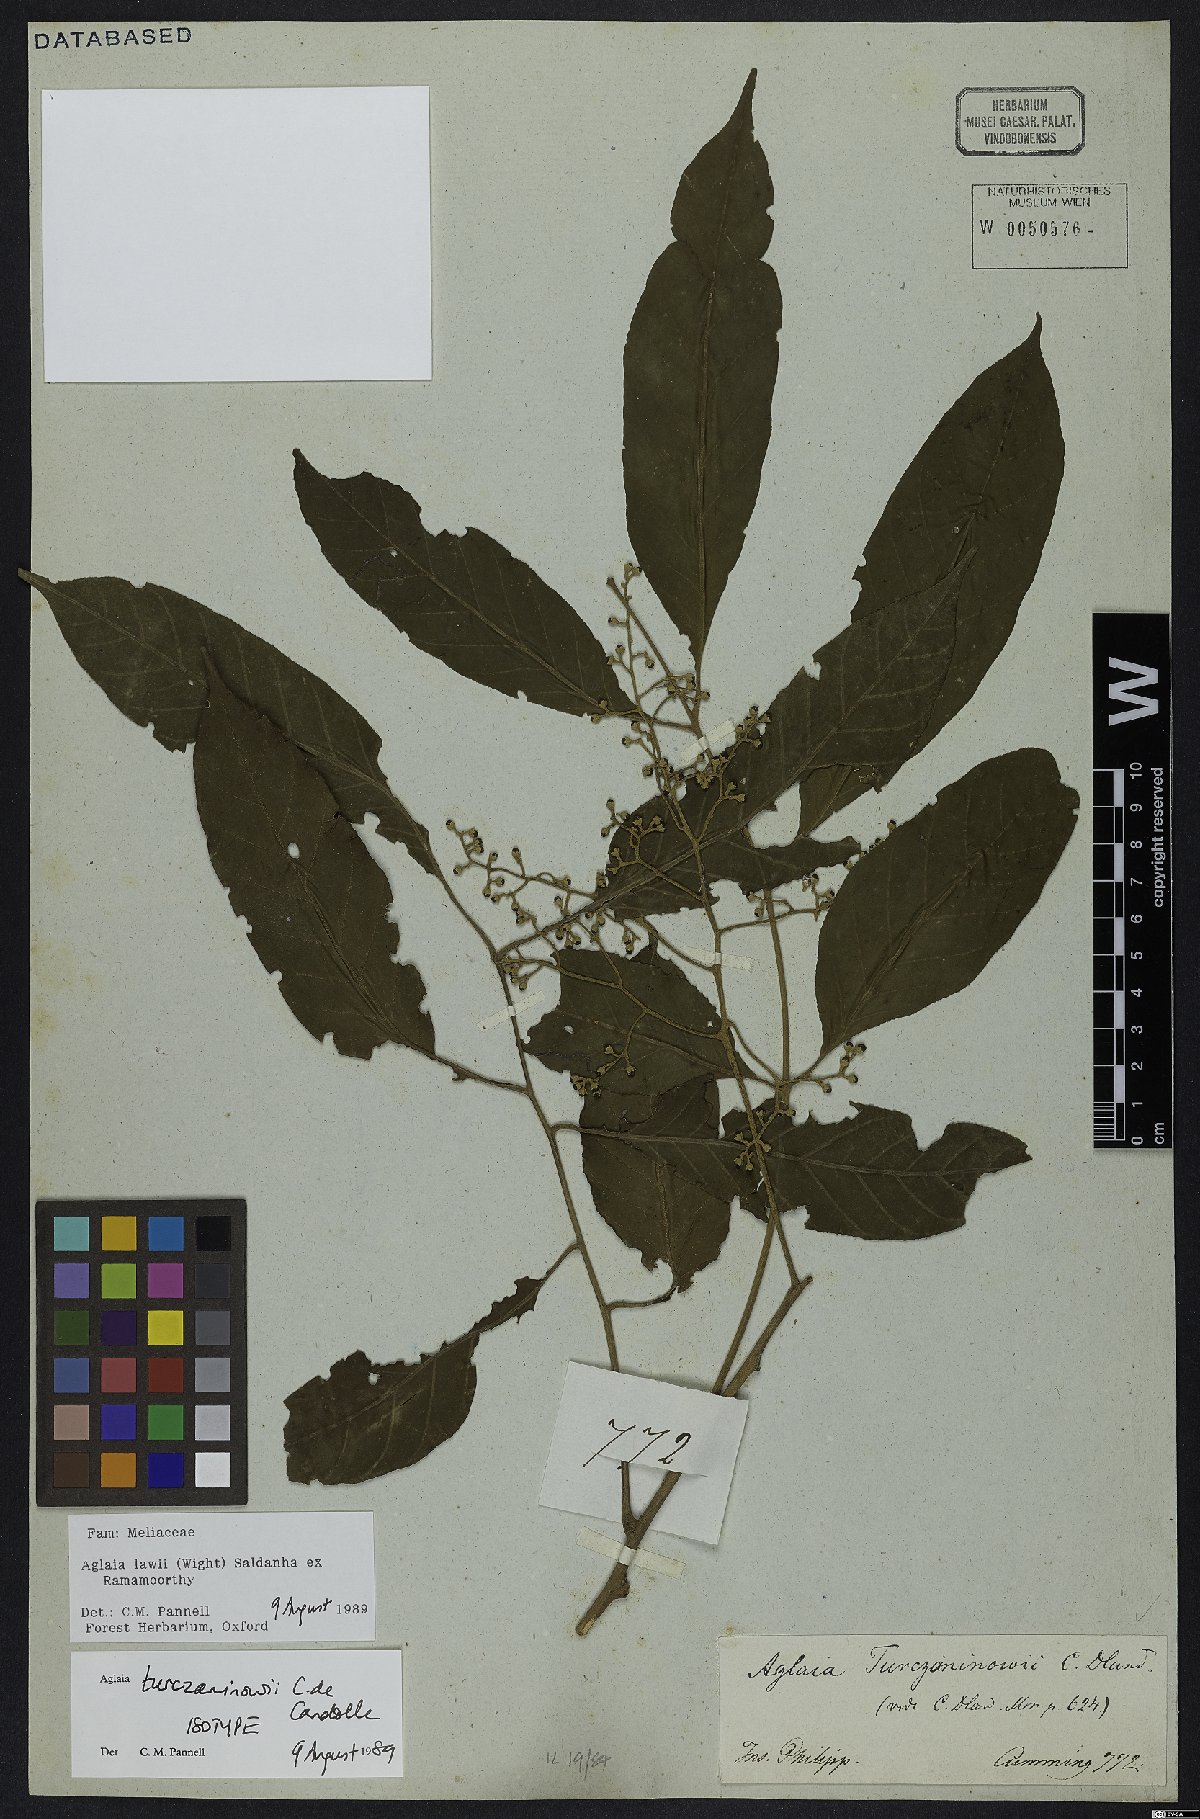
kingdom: Plantae
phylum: Tracheophyta
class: Magnoliopsida
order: Sapindales
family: Meliaceae
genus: Aglaia
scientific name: Aglaia lawii
